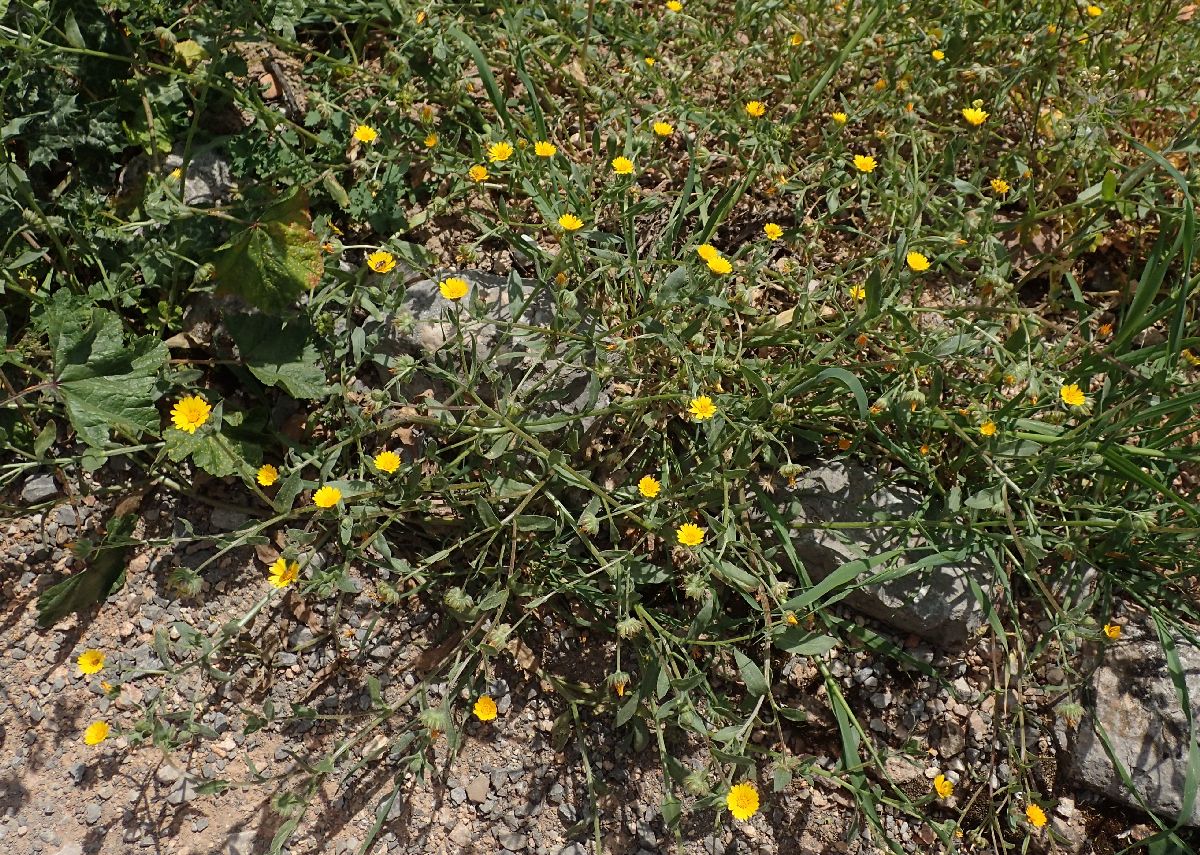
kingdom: Plantae
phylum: Tracheophyta
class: Magnoliopsida
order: Asterales
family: Asteraceae
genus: Calendula
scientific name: Calendula suffruticosa
